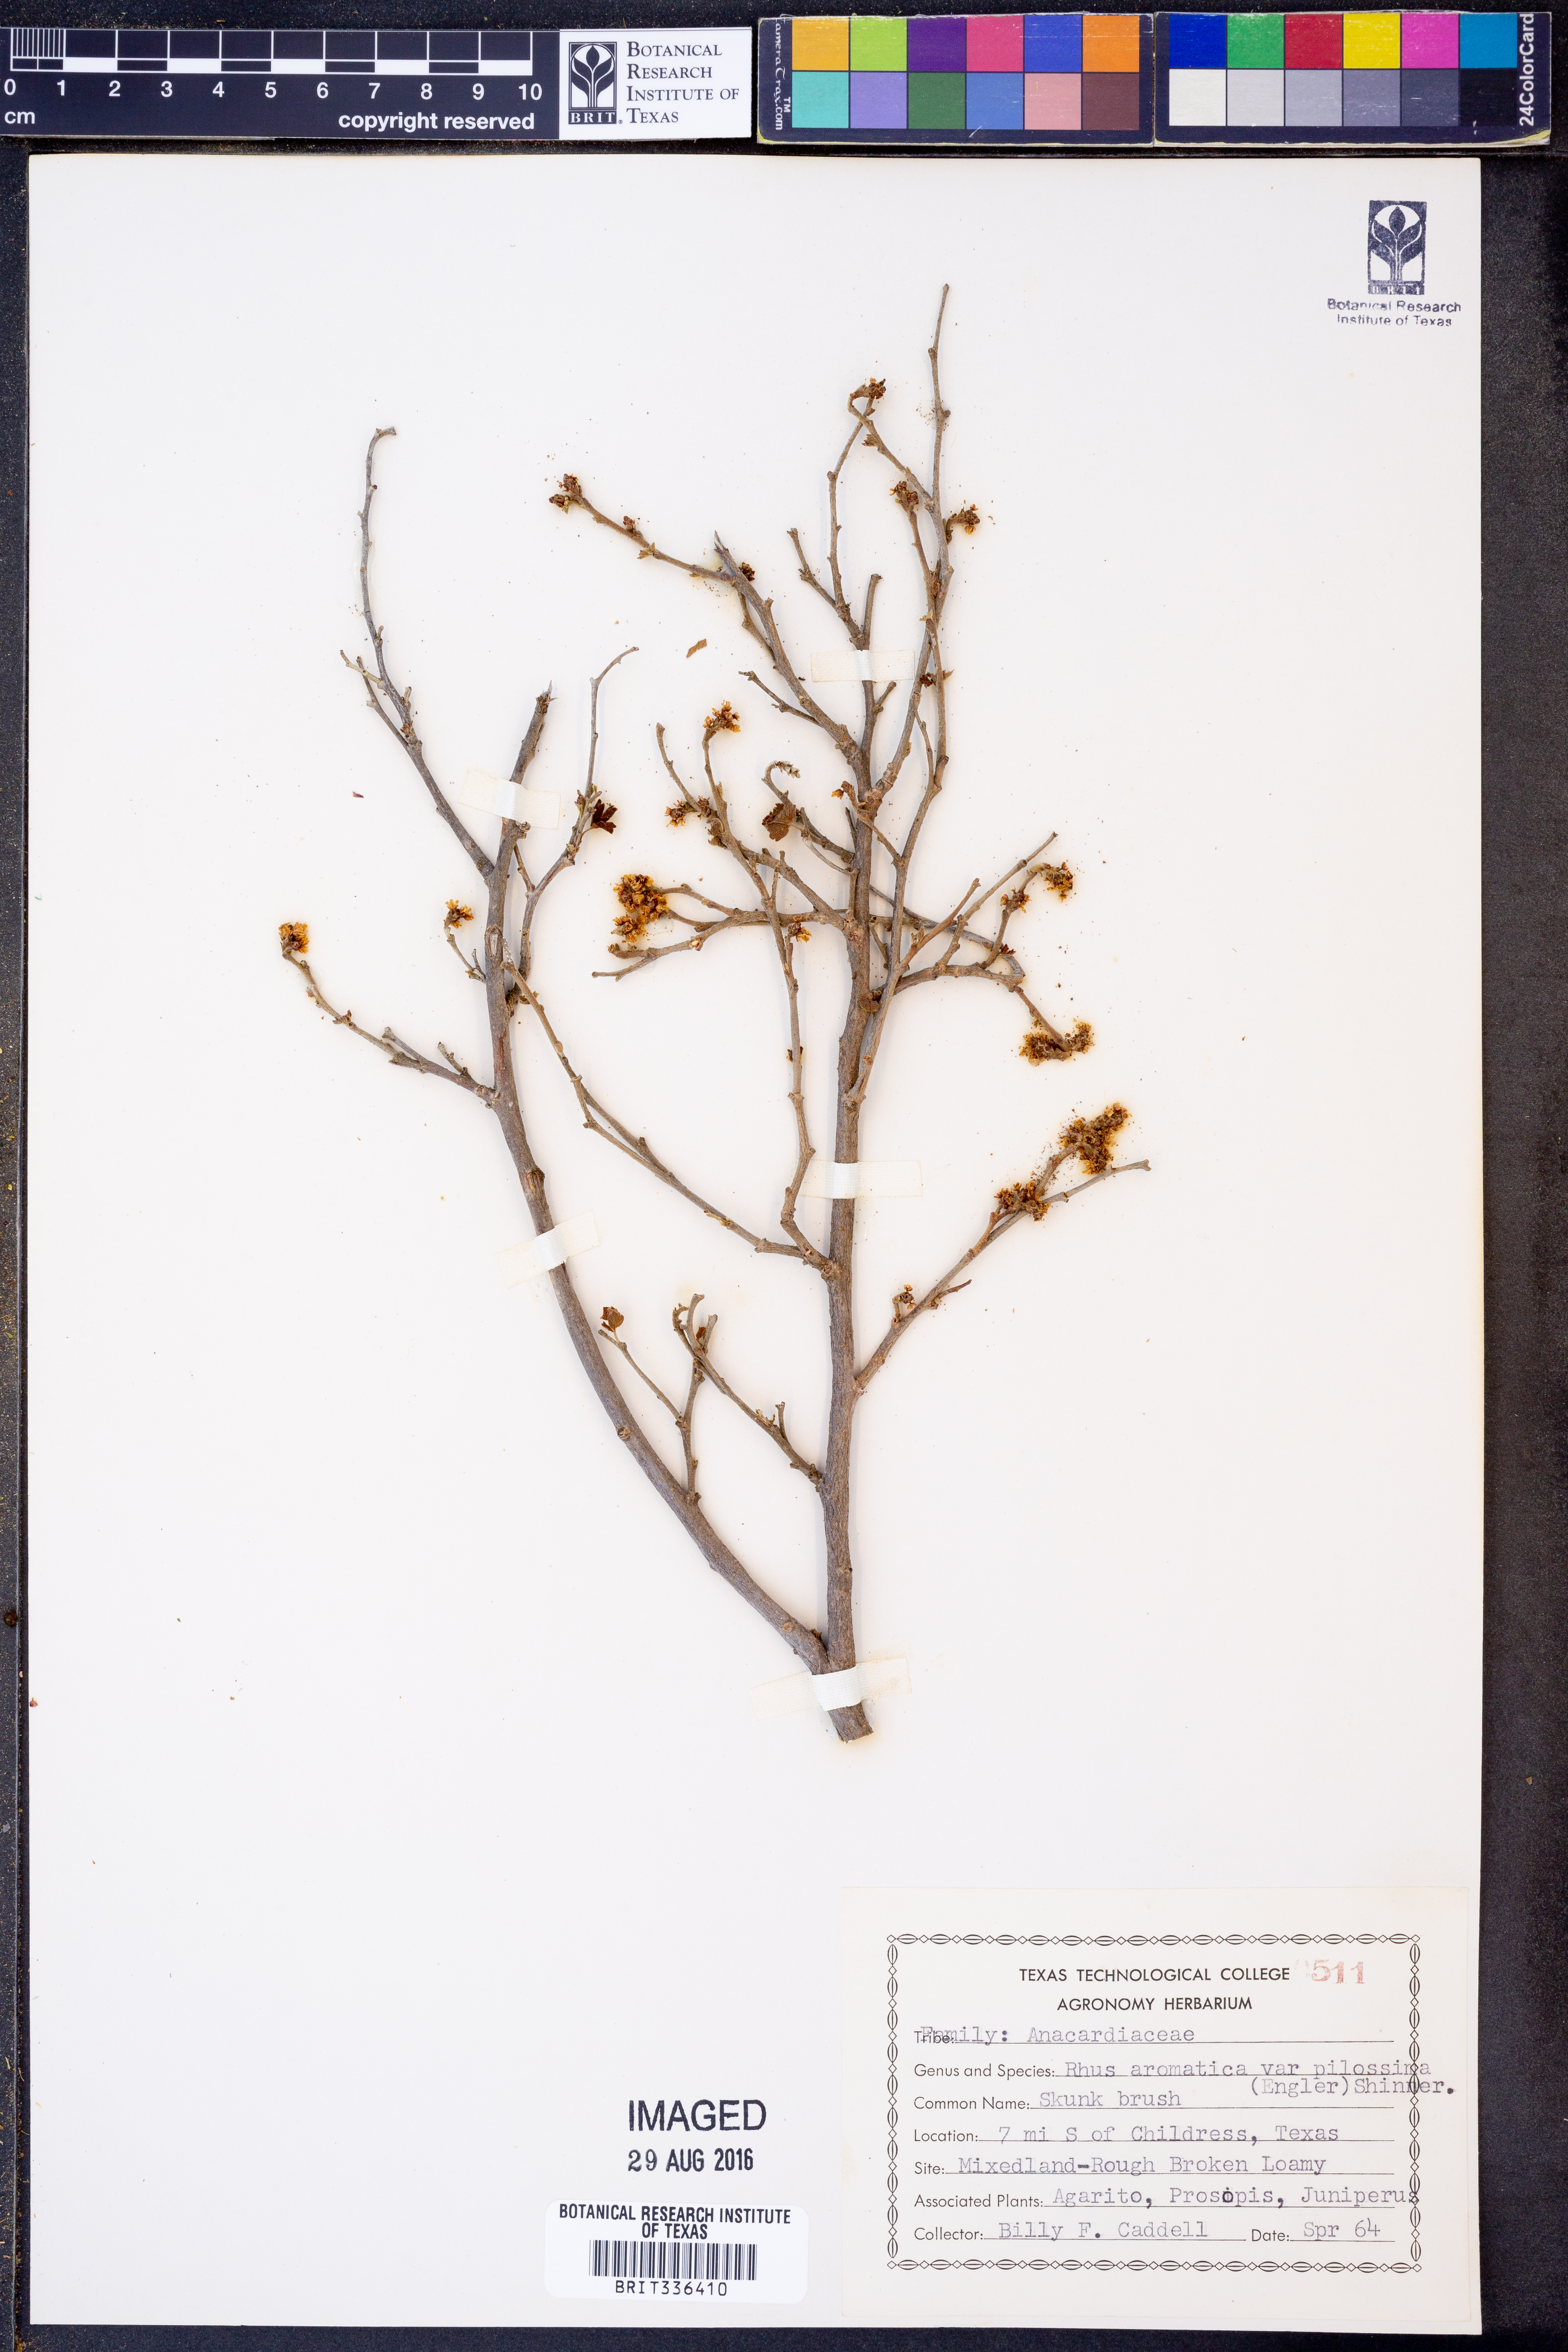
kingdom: Plantae
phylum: Tracheophyta
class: Magnoliopsida
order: Sapindales
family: Anacardiaceae
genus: Rhus
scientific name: Rhus trilobata
